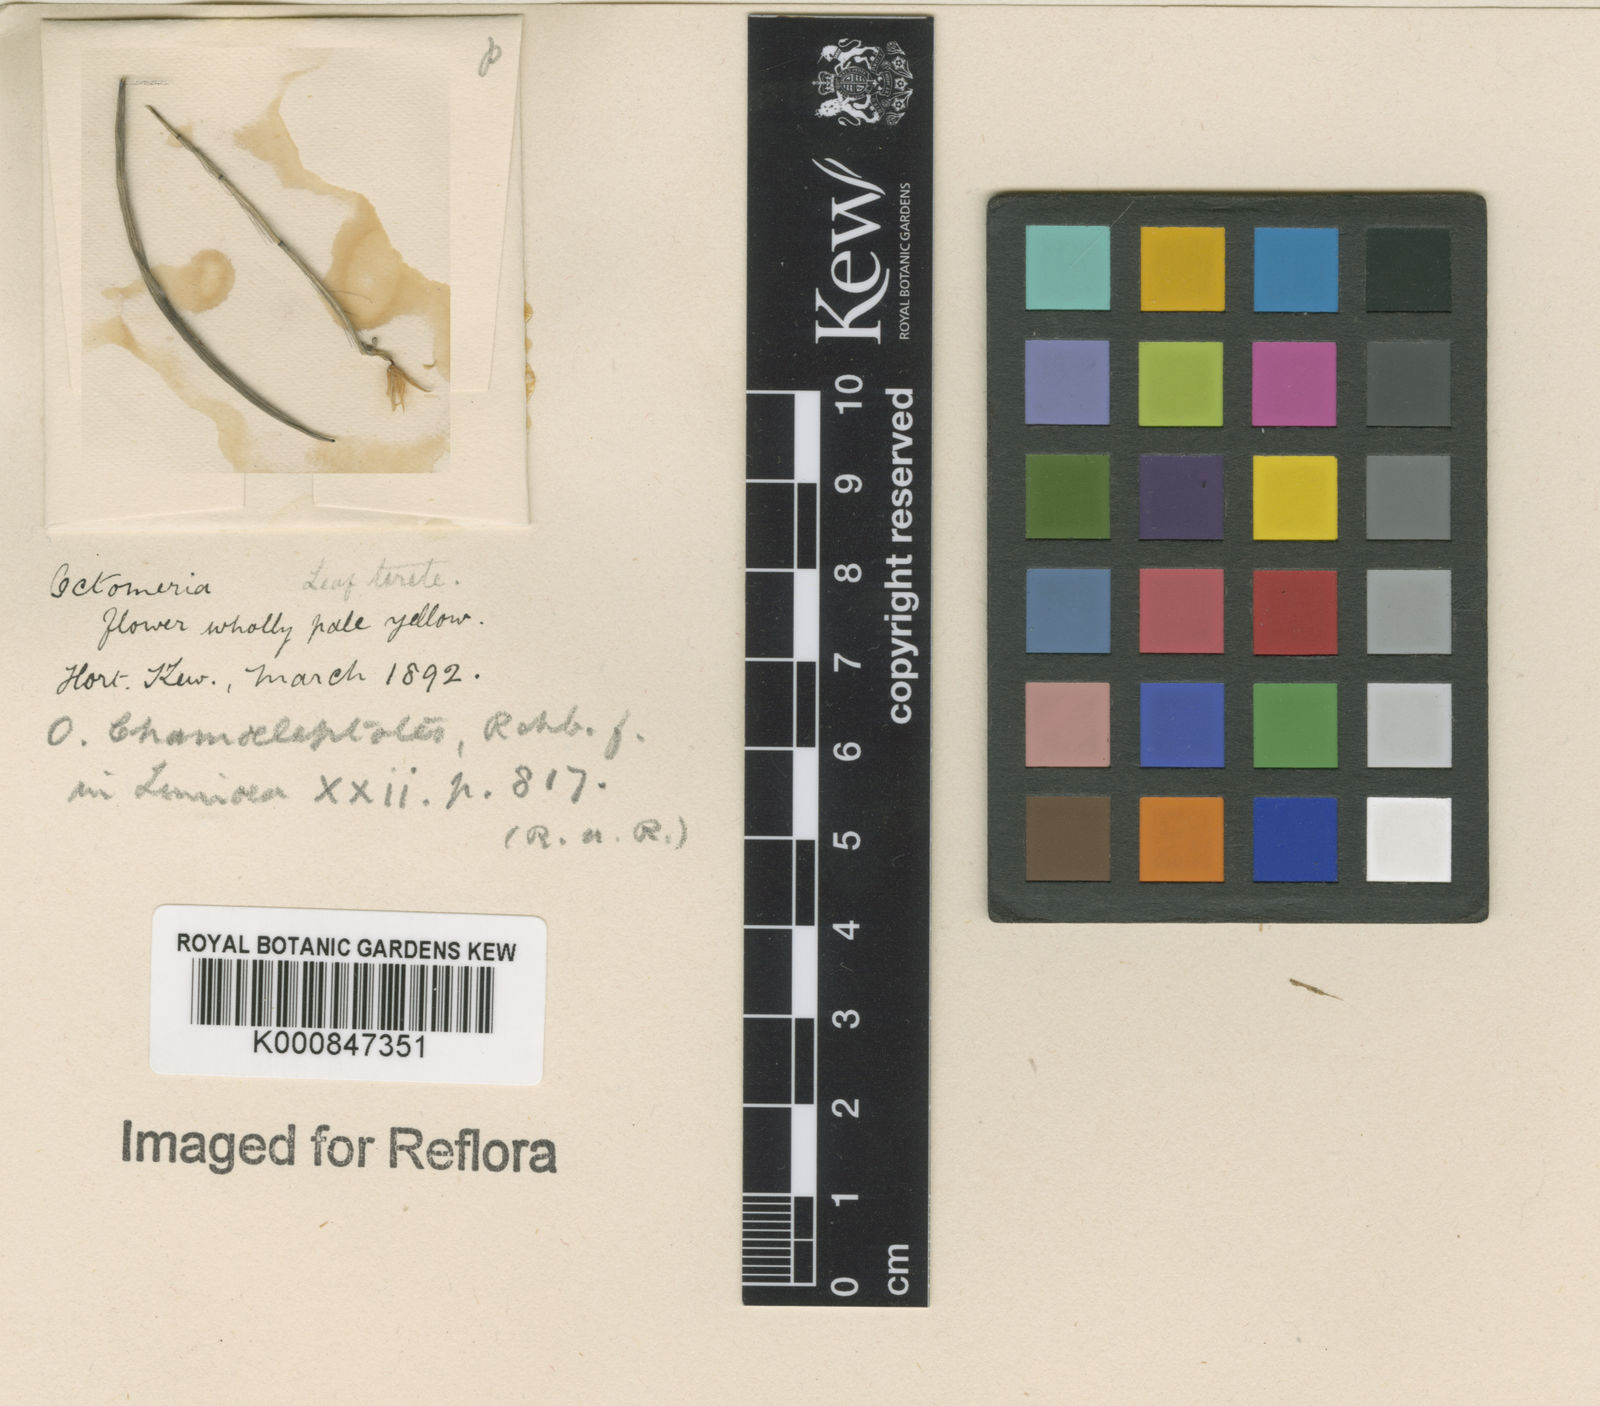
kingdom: Plantae
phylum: Tracheophyta
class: Liliopsida
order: Asparagales
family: Orchidaceae
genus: Octomeria
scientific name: Octomeria chamaeleptotes
